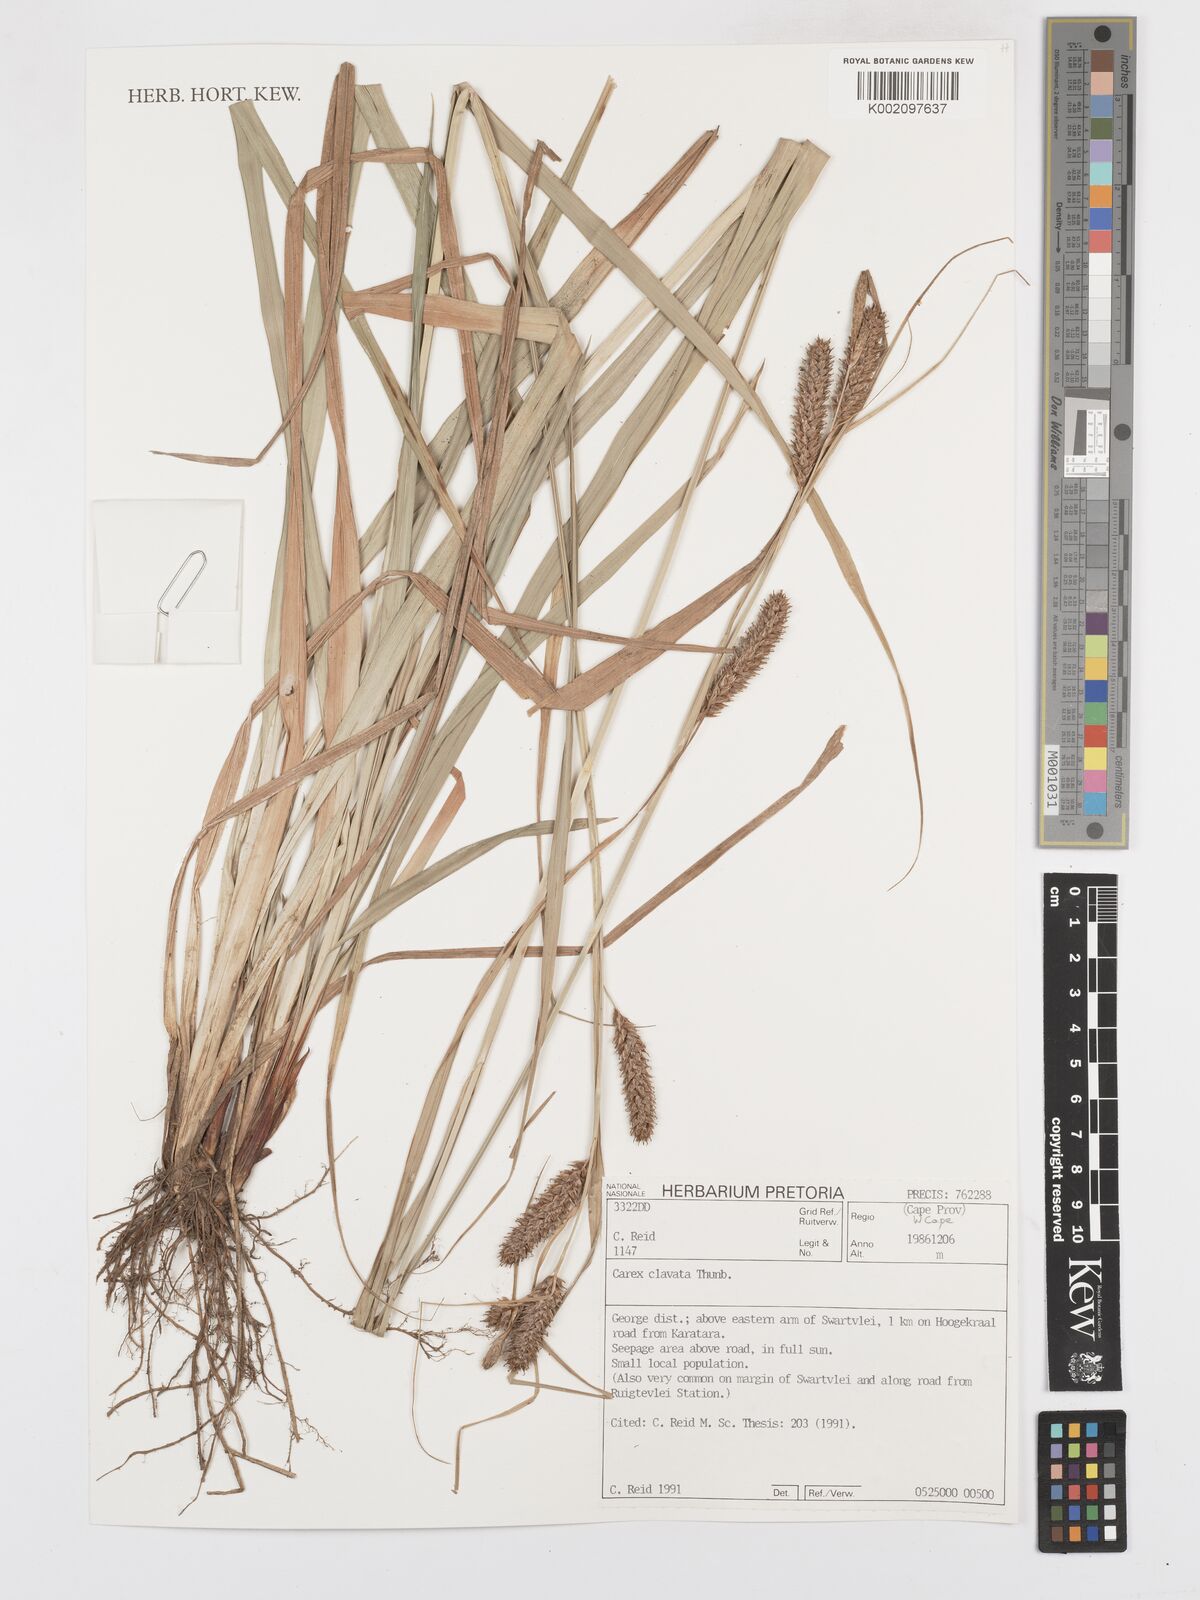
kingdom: Plantae
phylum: Tracheophyta
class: Liliopsida
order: Poales
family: Cyperaceae
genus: Carex
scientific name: Carex clavata
